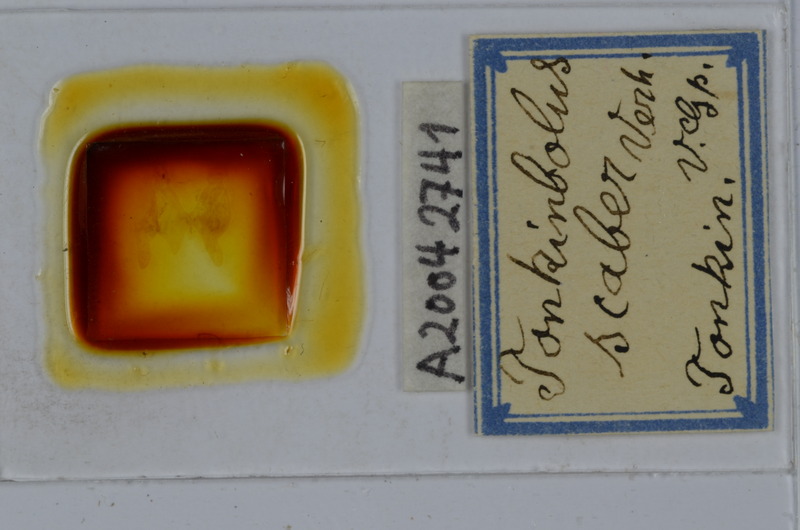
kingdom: Animalia
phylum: Arthropoda
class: Diplopoda
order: Spirobolida
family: Pachybolidae
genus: Litostrophus
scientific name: Litostrophus scaber
